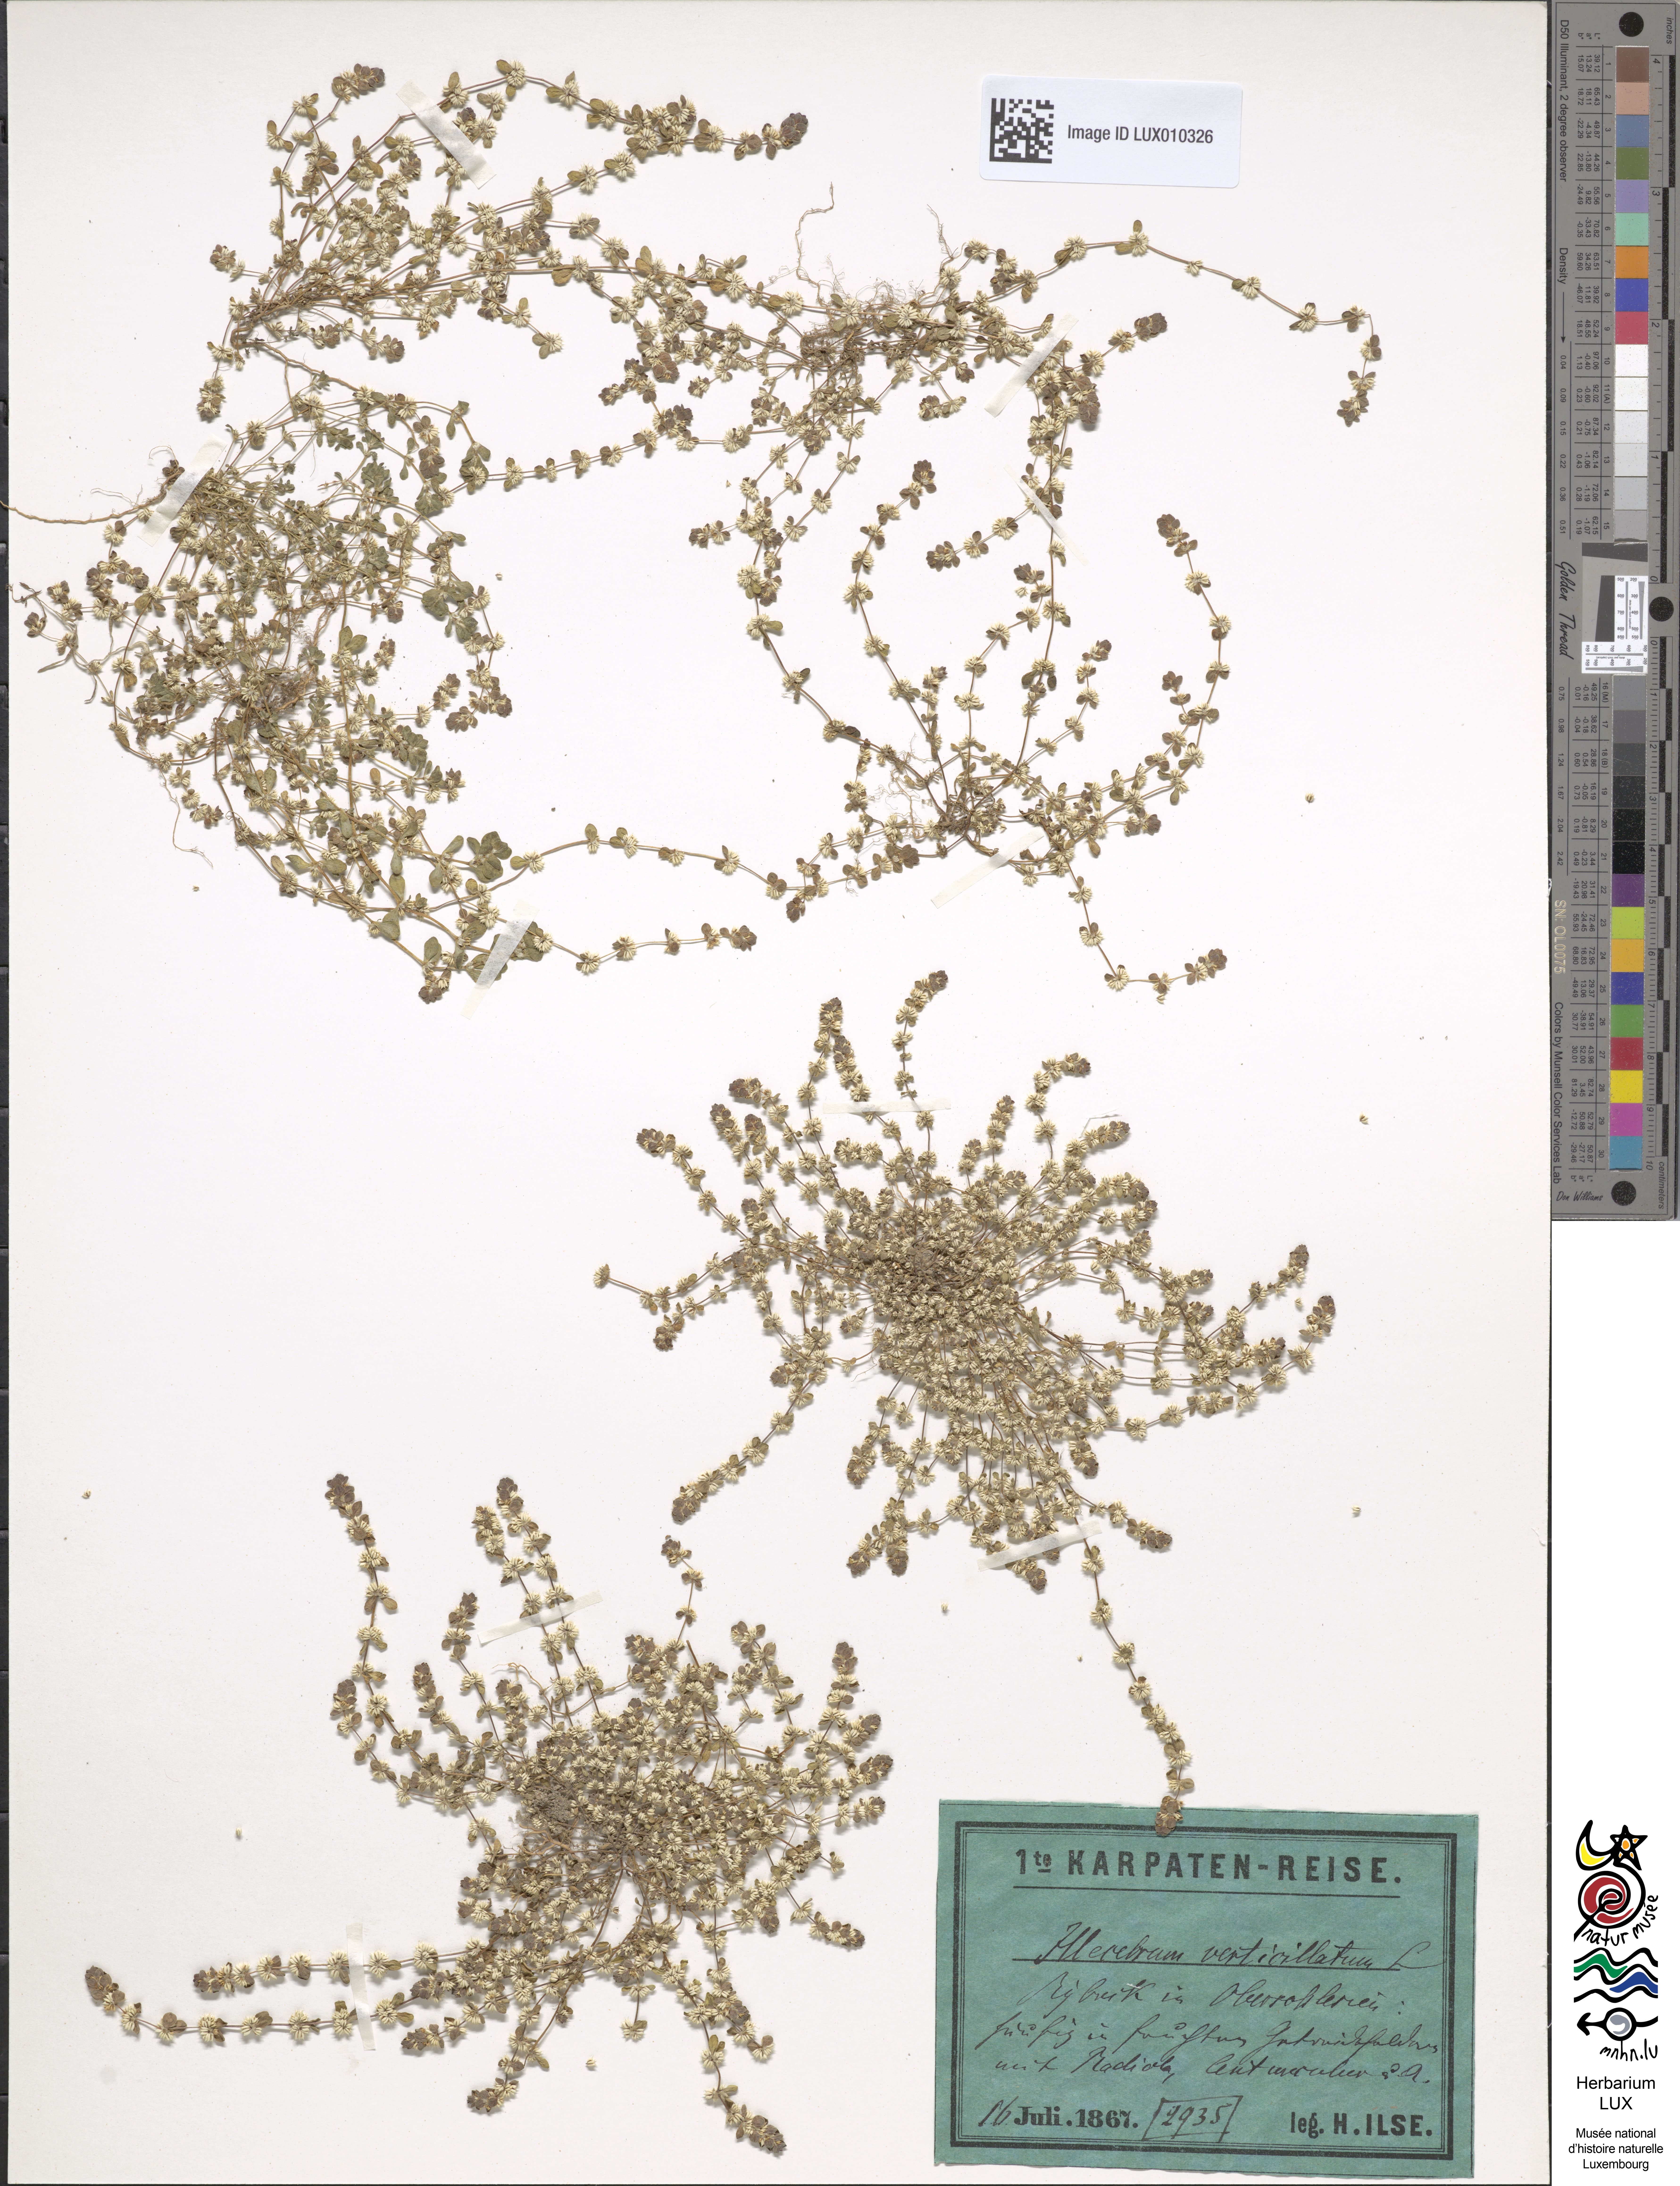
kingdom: Plantae
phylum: Tracheophyta
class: Magnoliopsida
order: Caryophyllales
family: Caryophyllaceae
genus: Illecebrum
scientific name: Illecebrum verticillatum
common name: Coral necklace
